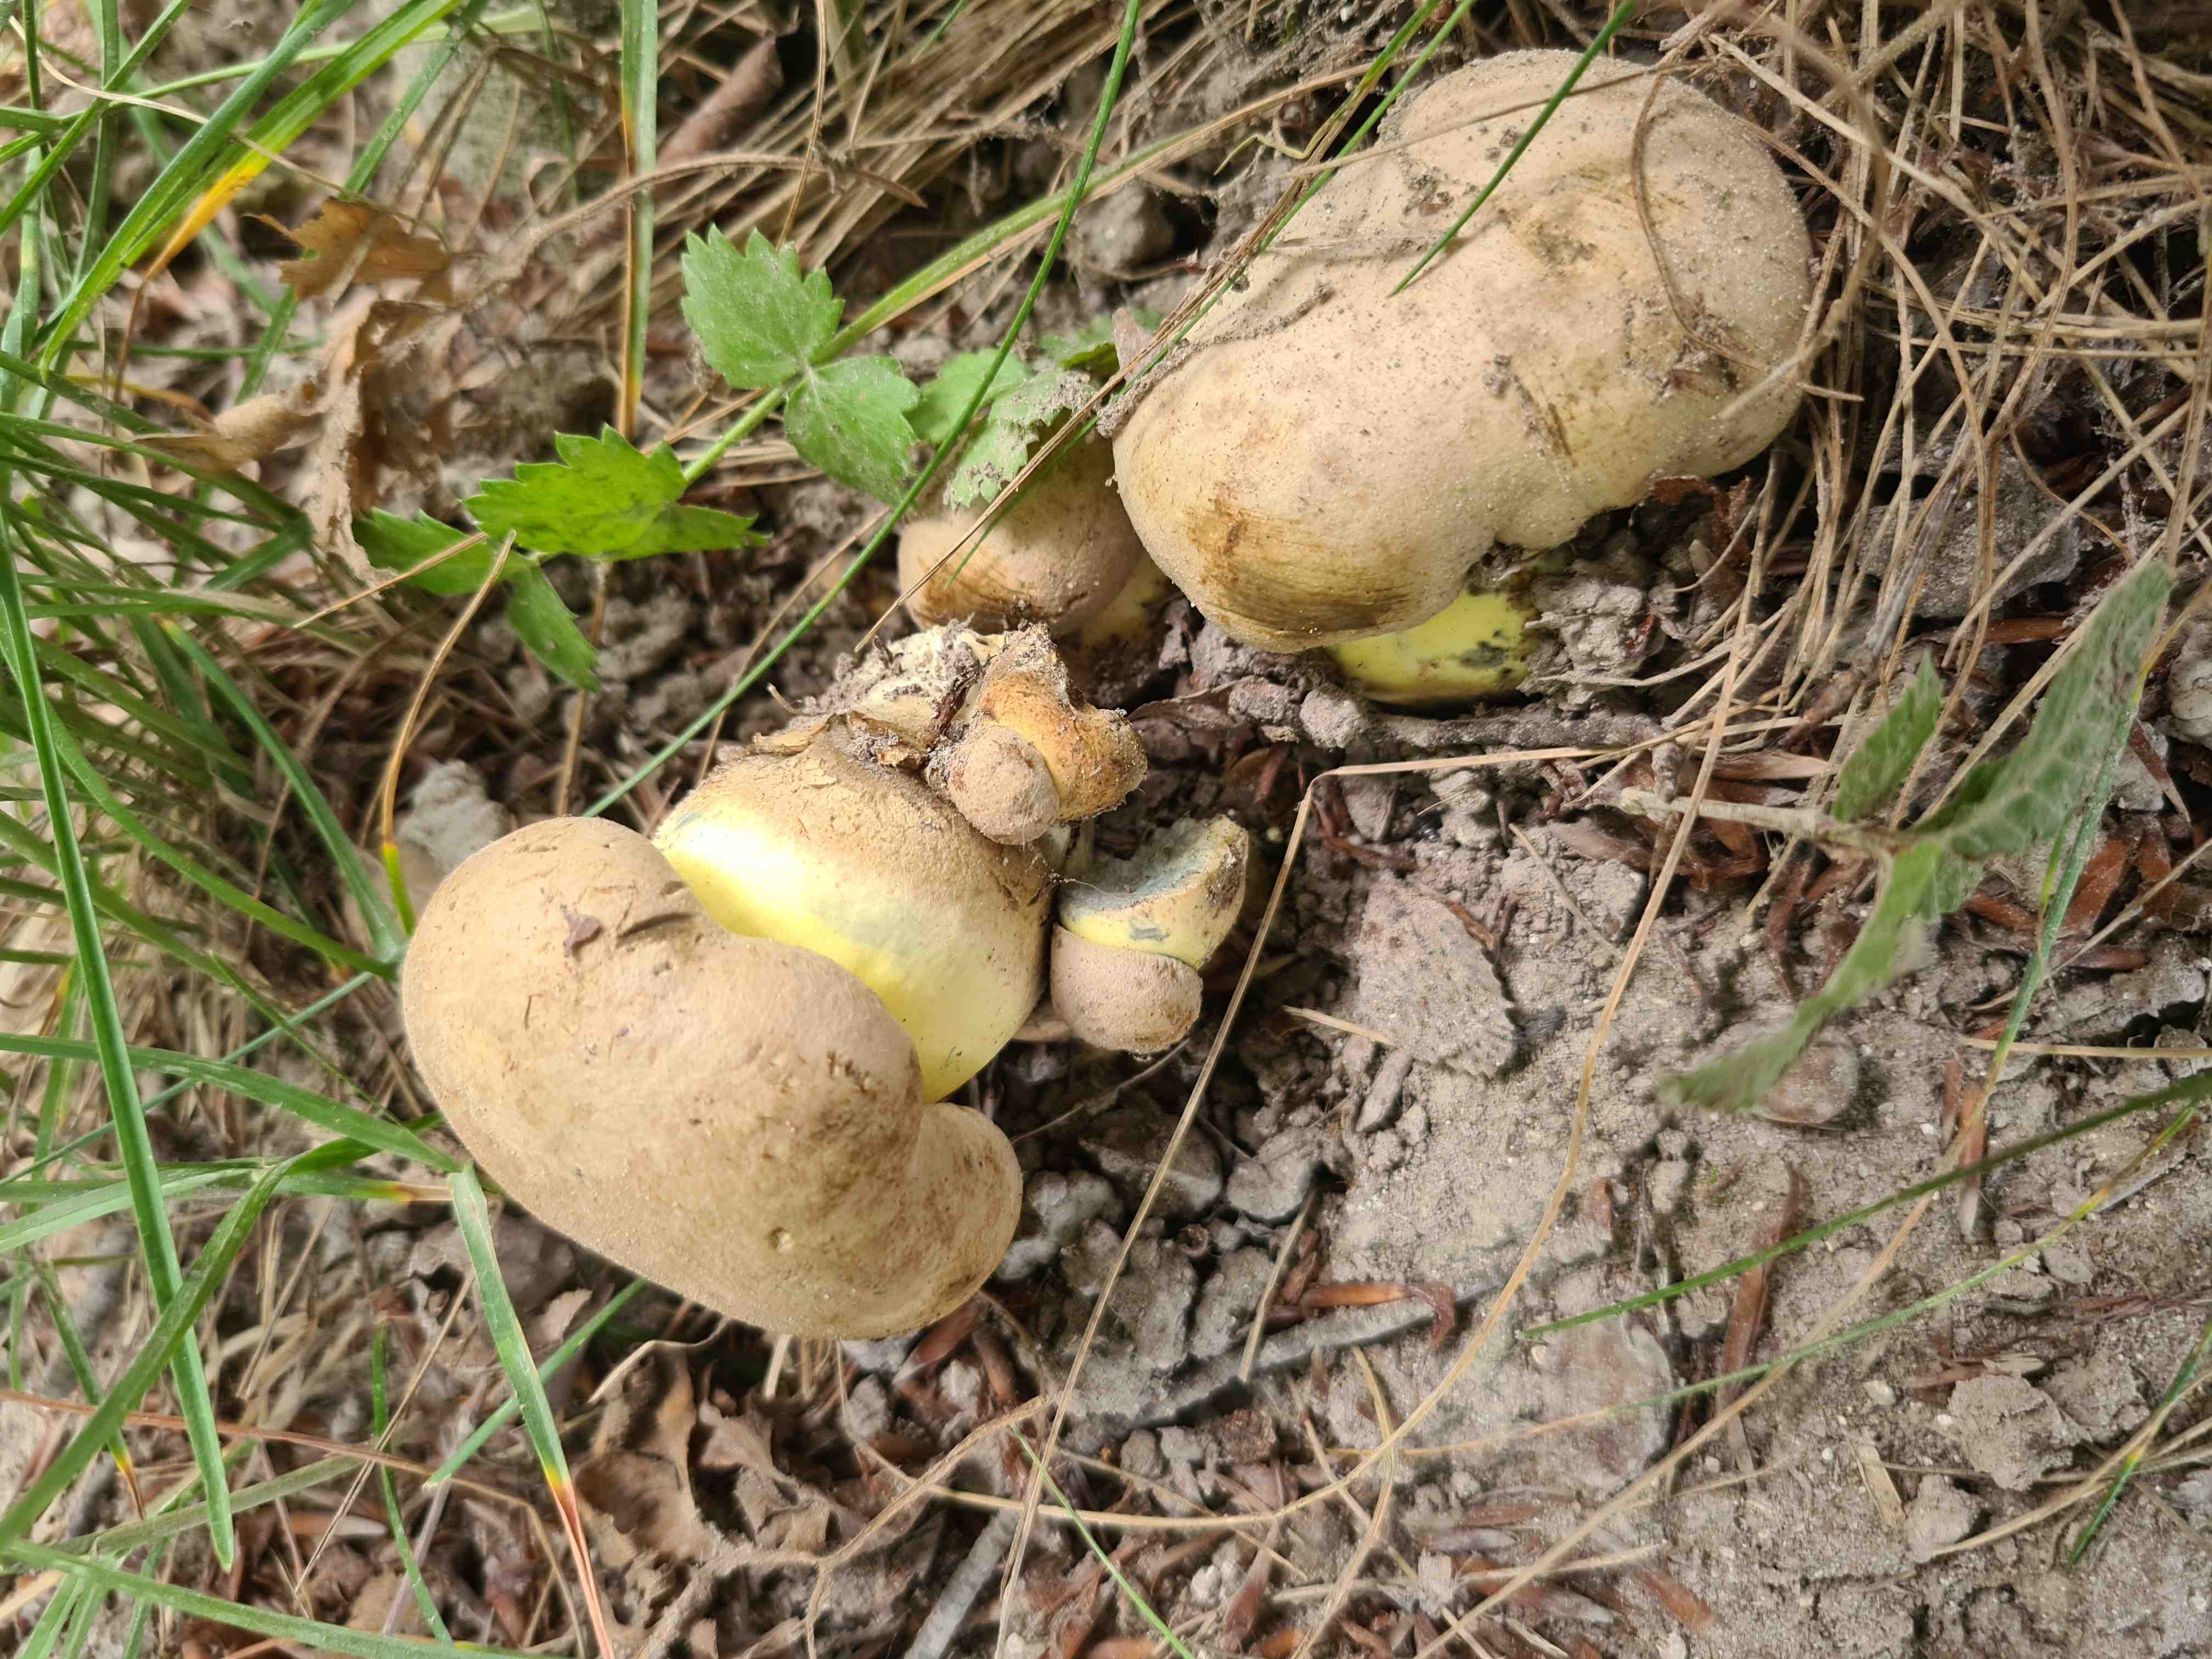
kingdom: Fungi
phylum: Basidiomycota
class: Agaricomycetes
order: Boletales
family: Boletaceae
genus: Caloboletus
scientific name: Caloboletus radicans
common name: rod-rørhat
